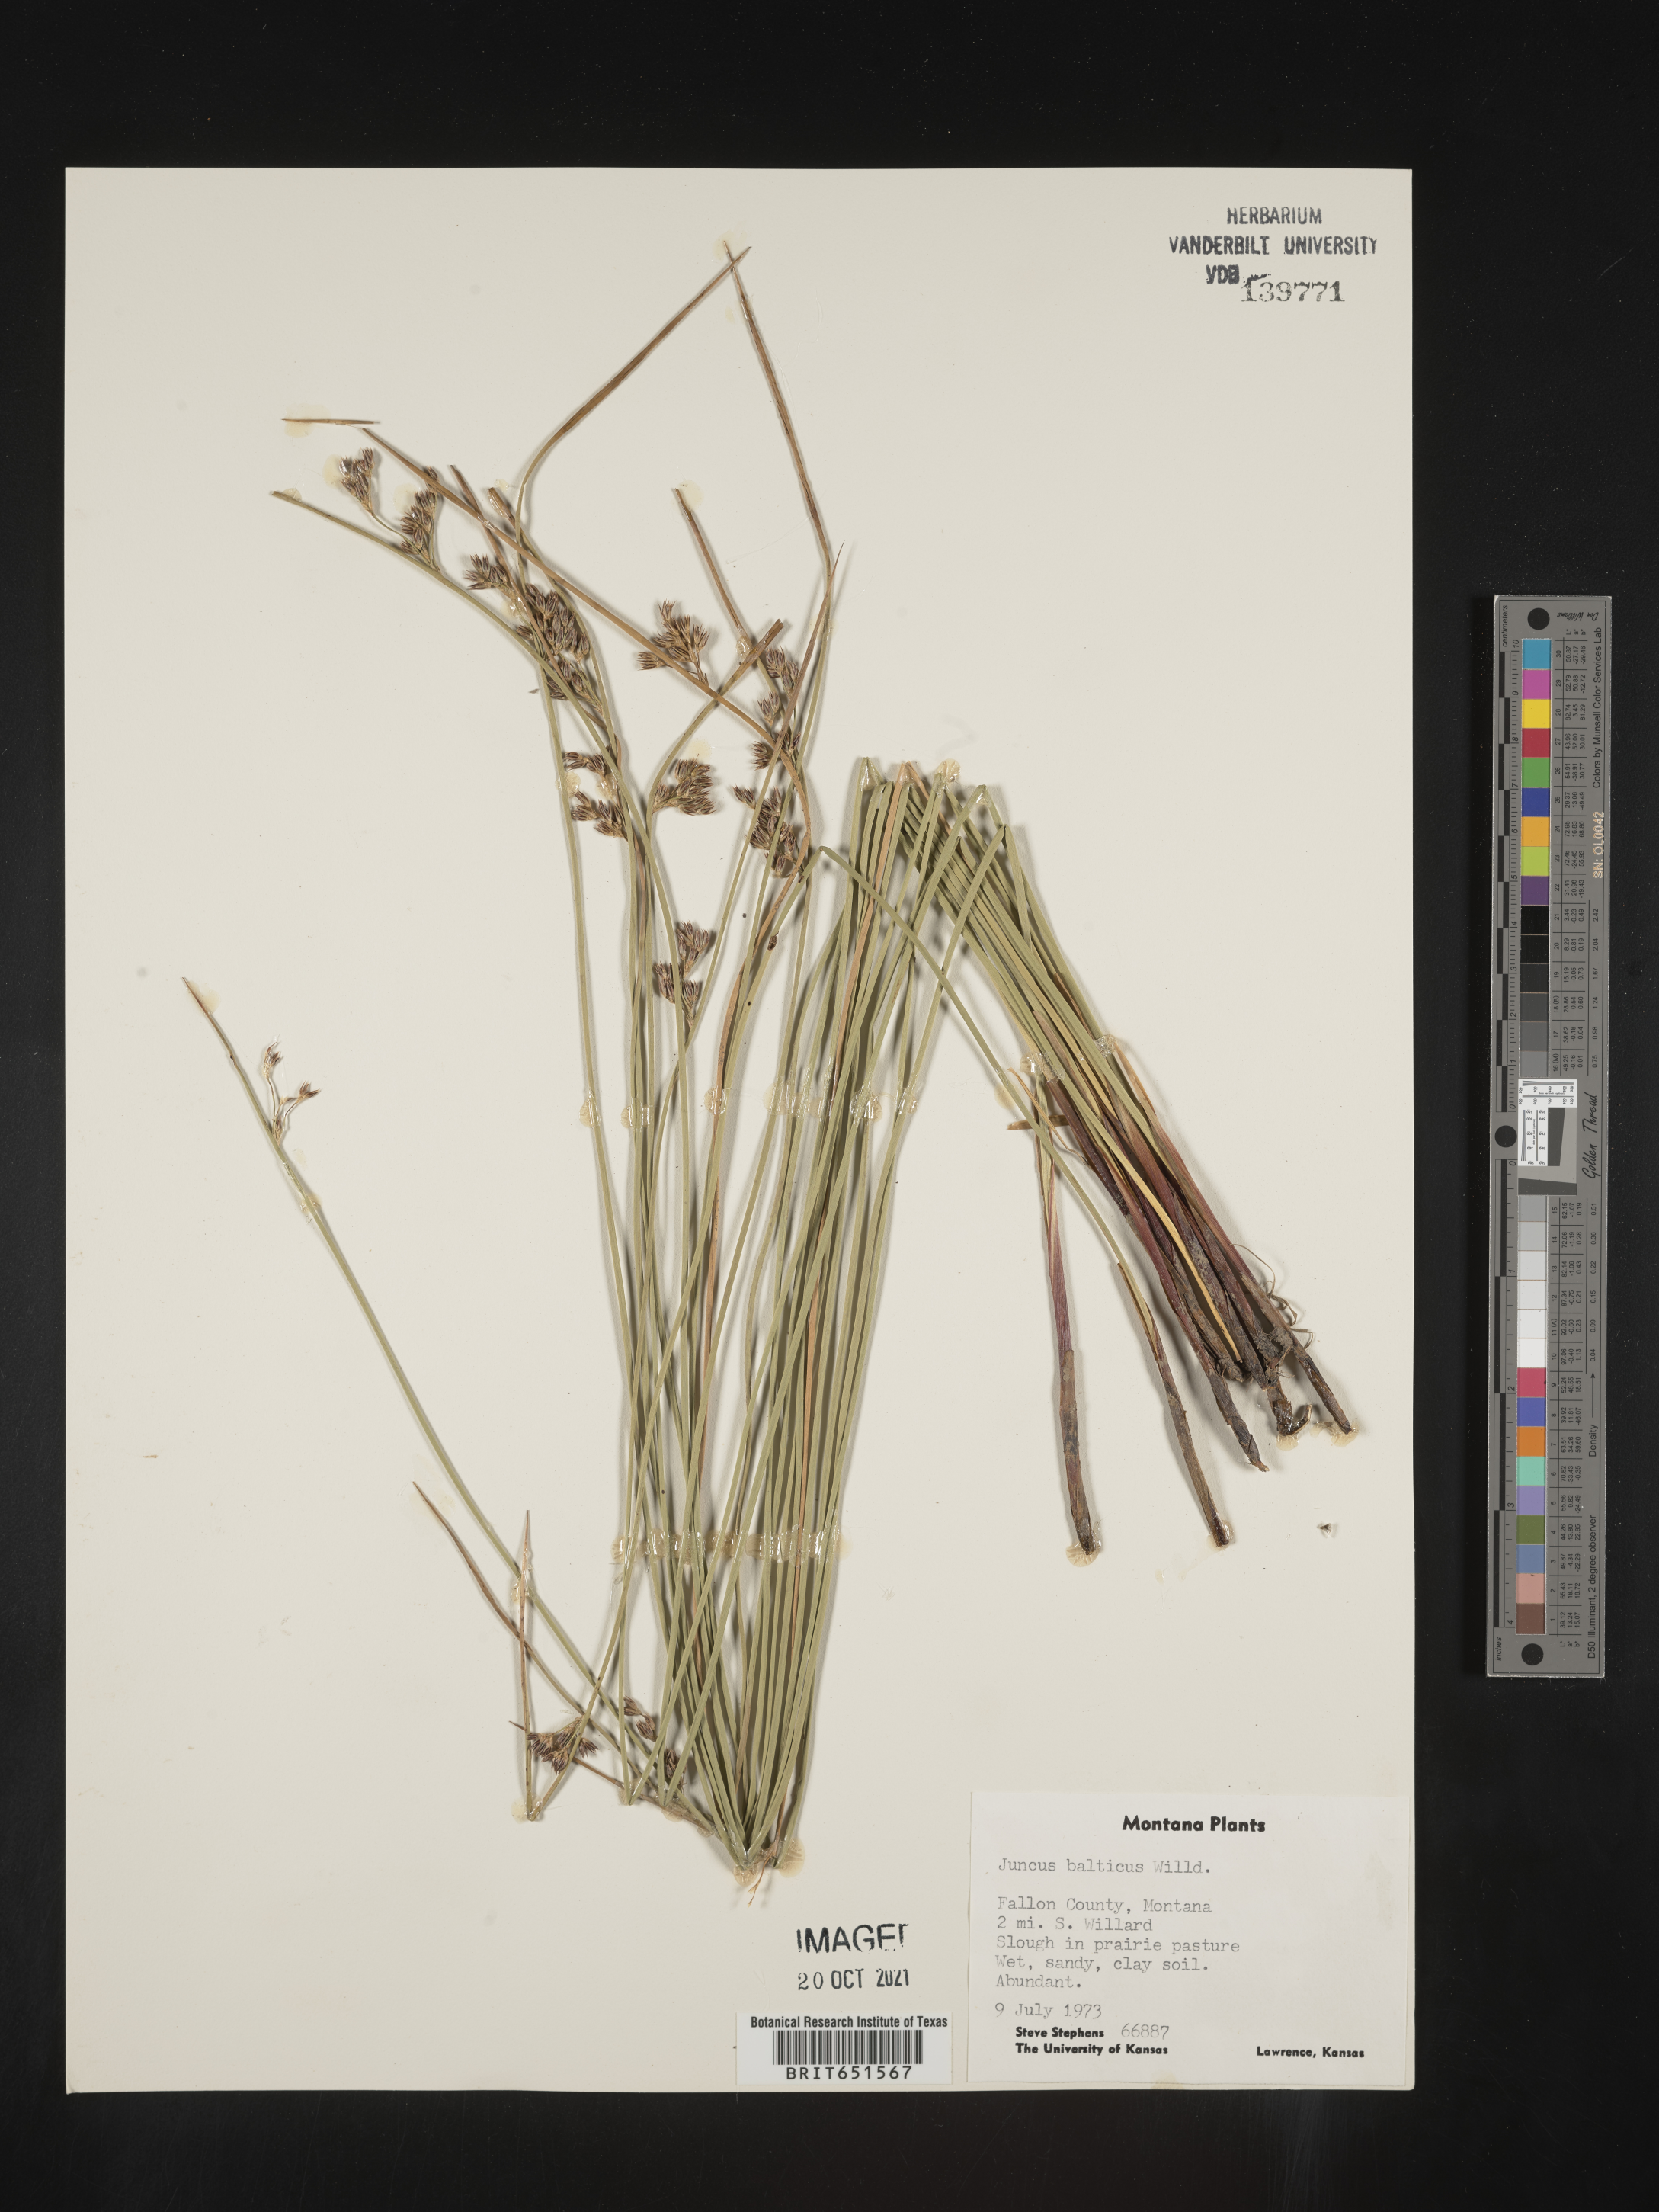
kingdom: Plantae
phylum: Tracheophyta
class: Liliopsida
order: Poales
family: Juncaceae
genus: Juncus
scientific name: Juncus balticus
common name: Baltic rush
